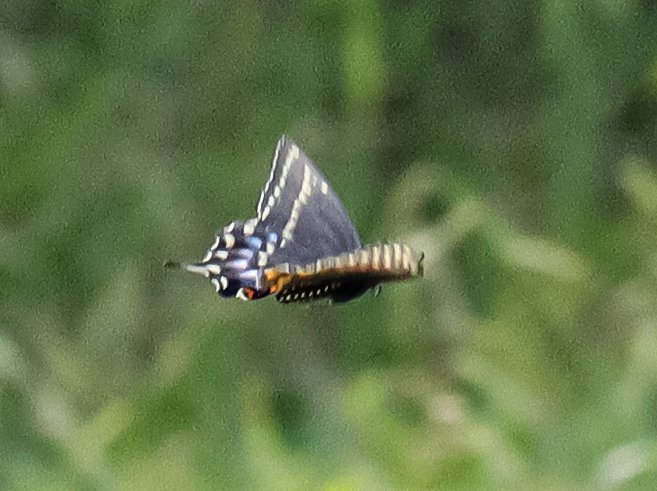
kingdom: Animalia
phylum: Arthropoda
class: Insecta
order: Lepidoptera
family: Papilionidae
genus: Papilio
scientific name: Papilio polyxenes
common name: Black Swallowtail
